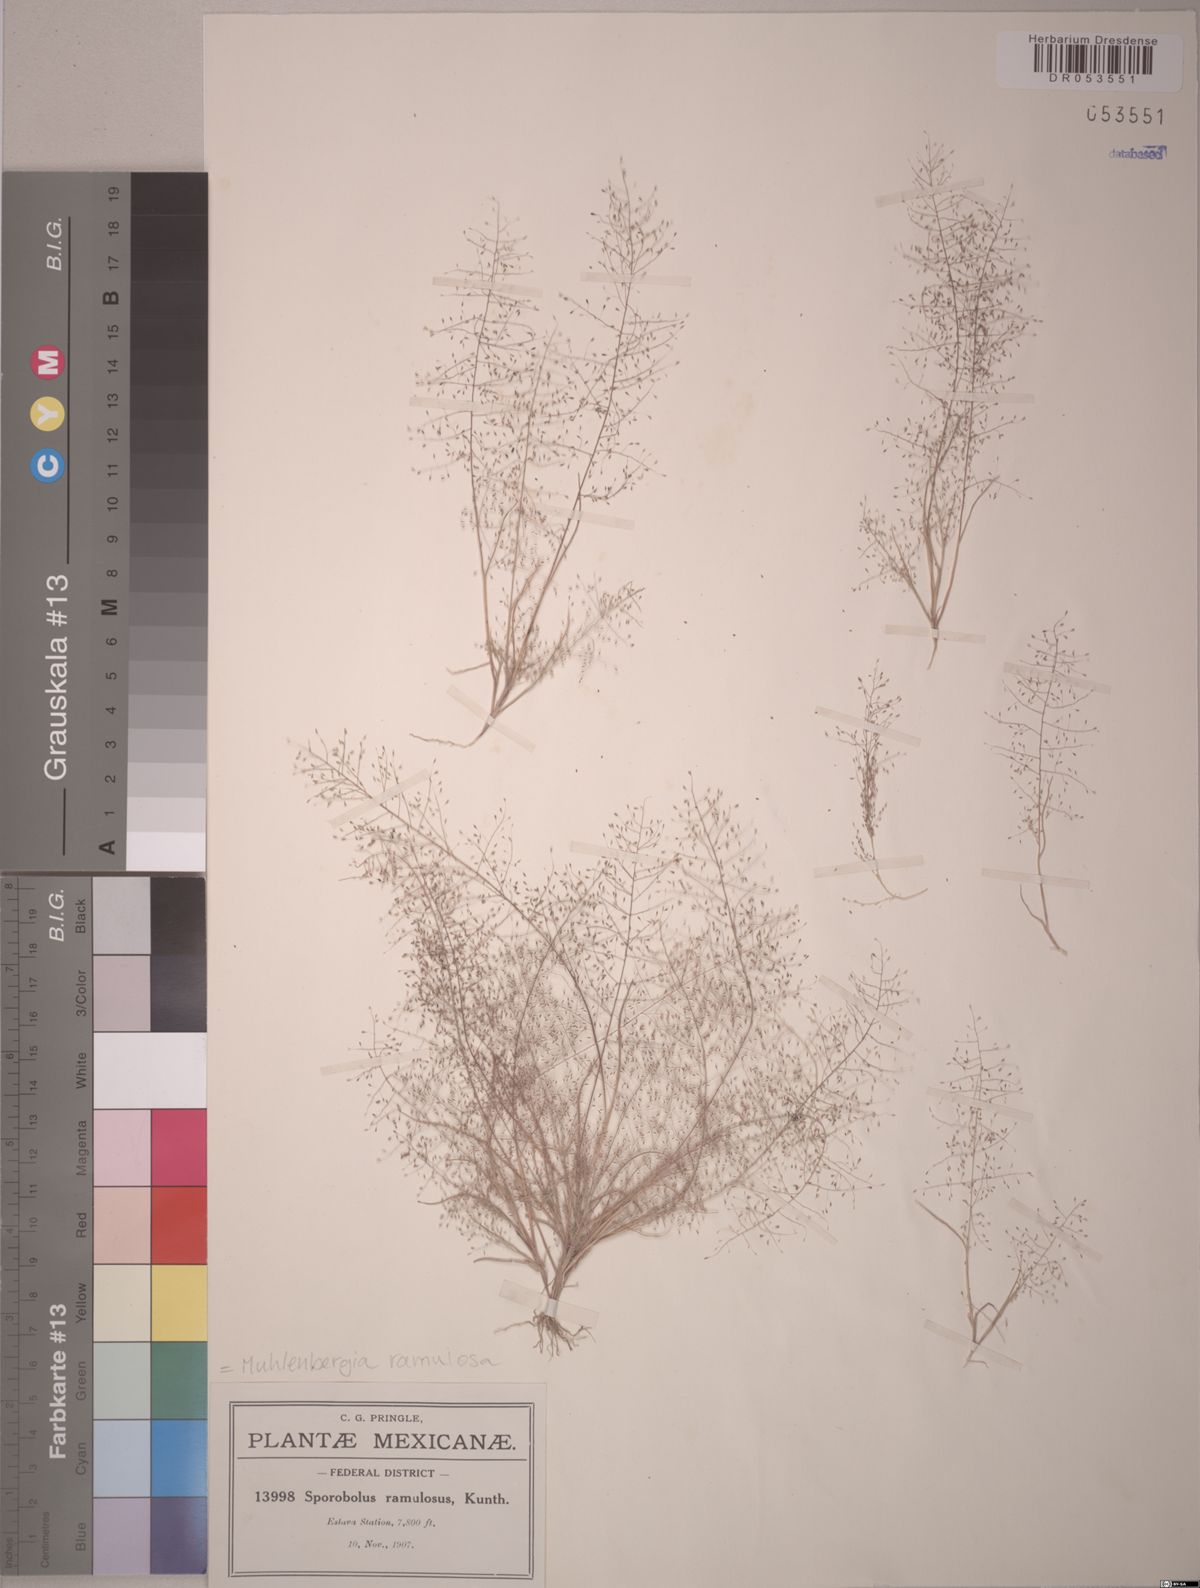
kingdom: Plantae
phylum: Tracheophyta
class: Liliopsida
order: Poales
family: Poaceae
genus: Muhlenbergia
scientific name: Muhlenbergia ramulosa
